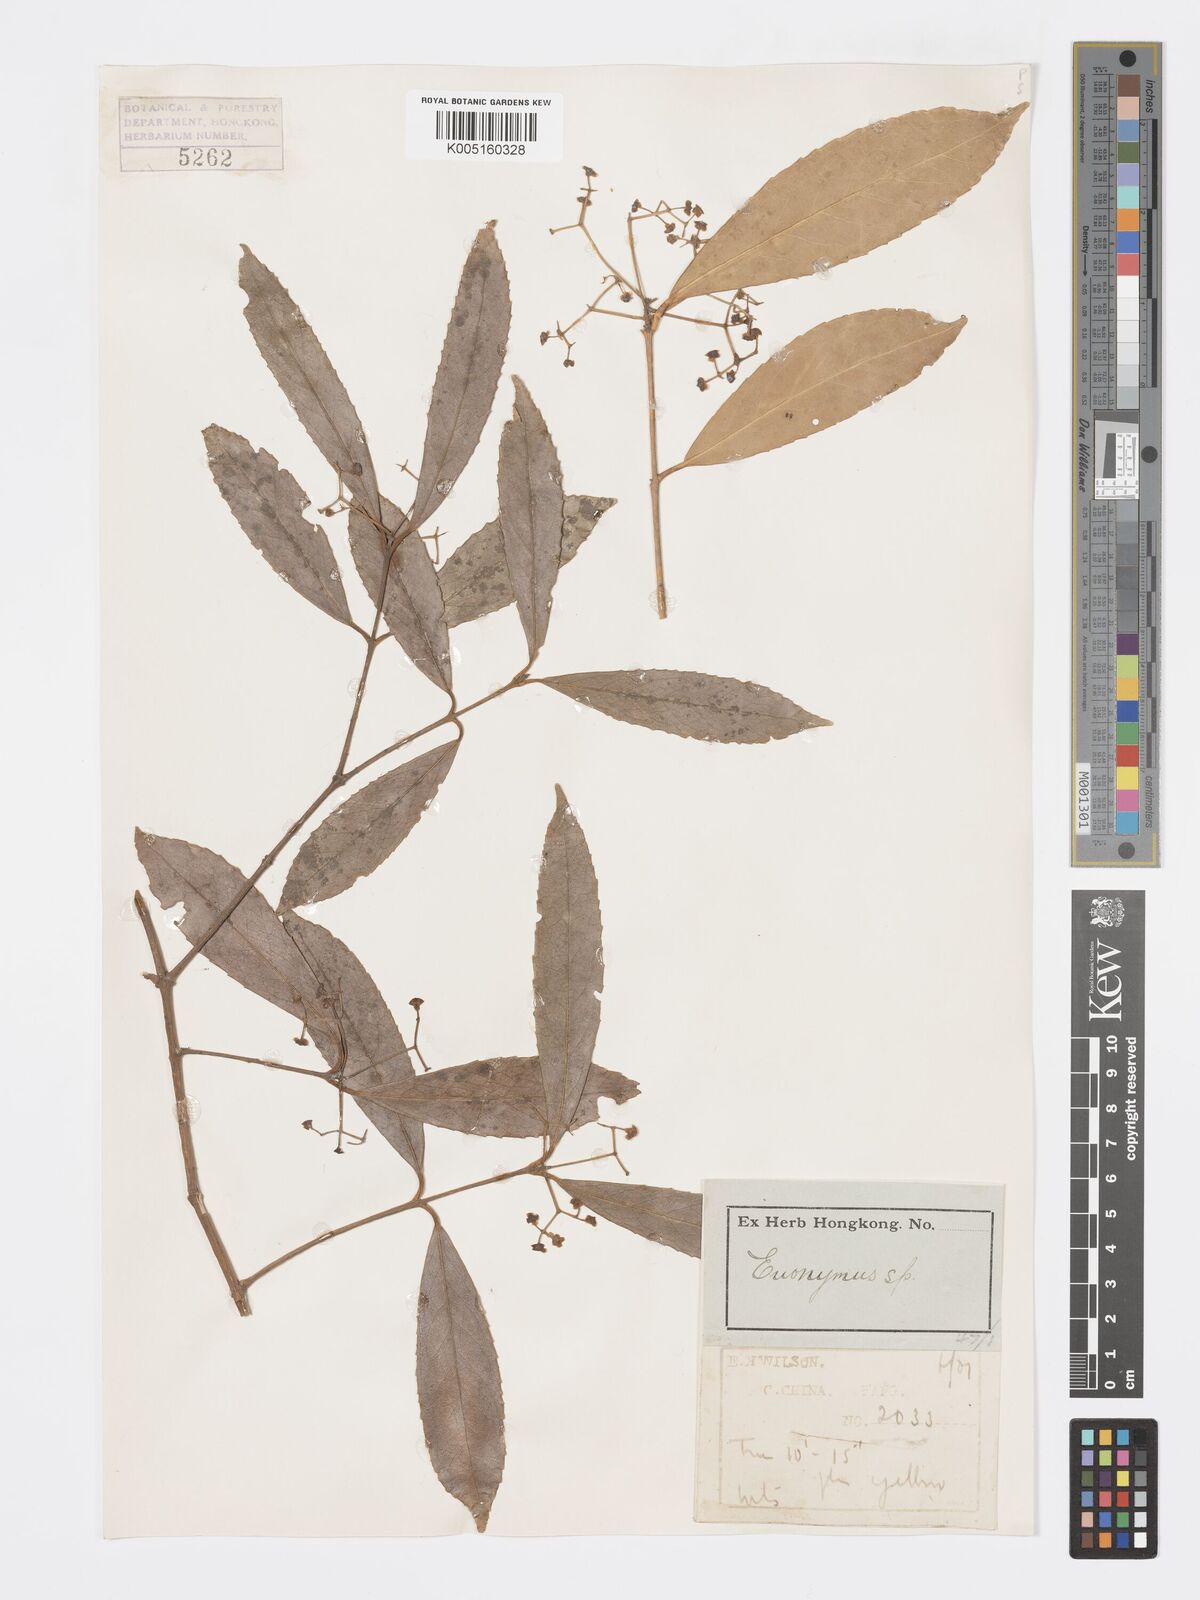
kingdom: Plantae
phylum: Tracheophyta
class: Magnoliopsida
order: Celastrales
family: Celastraceae
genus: Euonymus
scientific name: Euonymus
